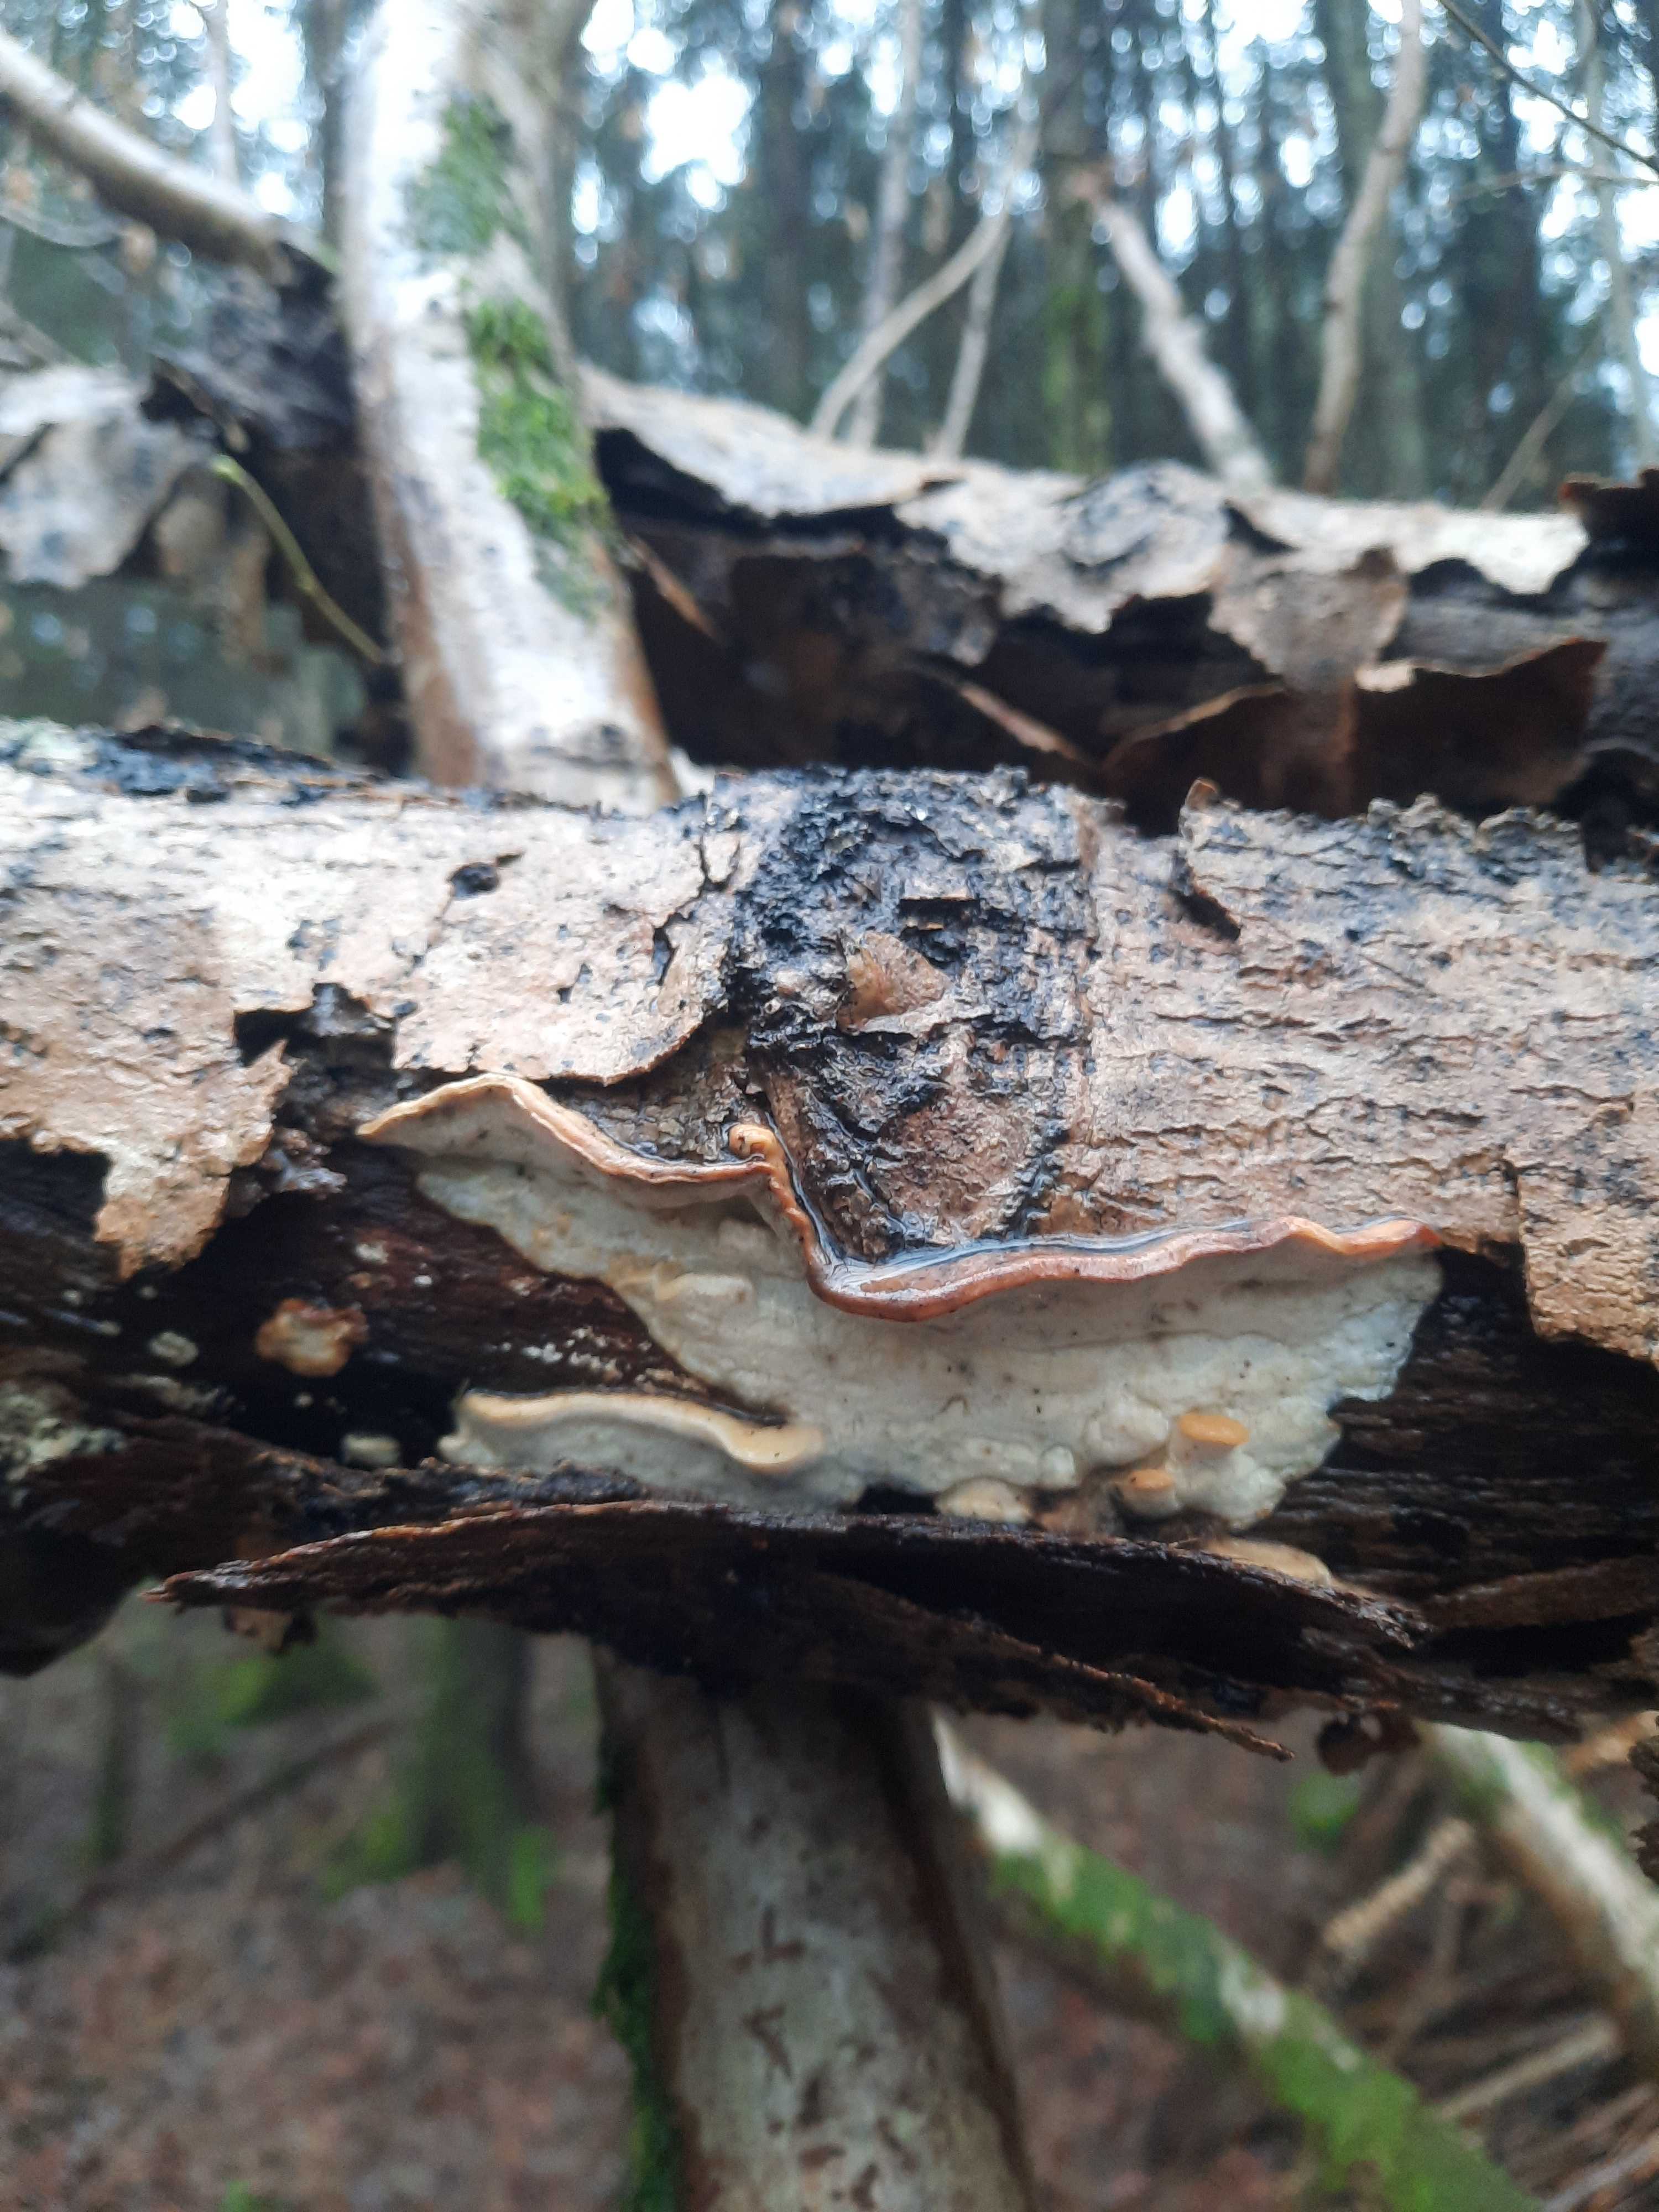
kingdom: Fungi
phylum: Basidiomycota
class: Agaricomycetes
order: Polyporales
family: Incrustoporiaceae
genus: Skeletocutis
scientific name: Skeletocutis nemoralis
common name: stor krystalporesvamp
